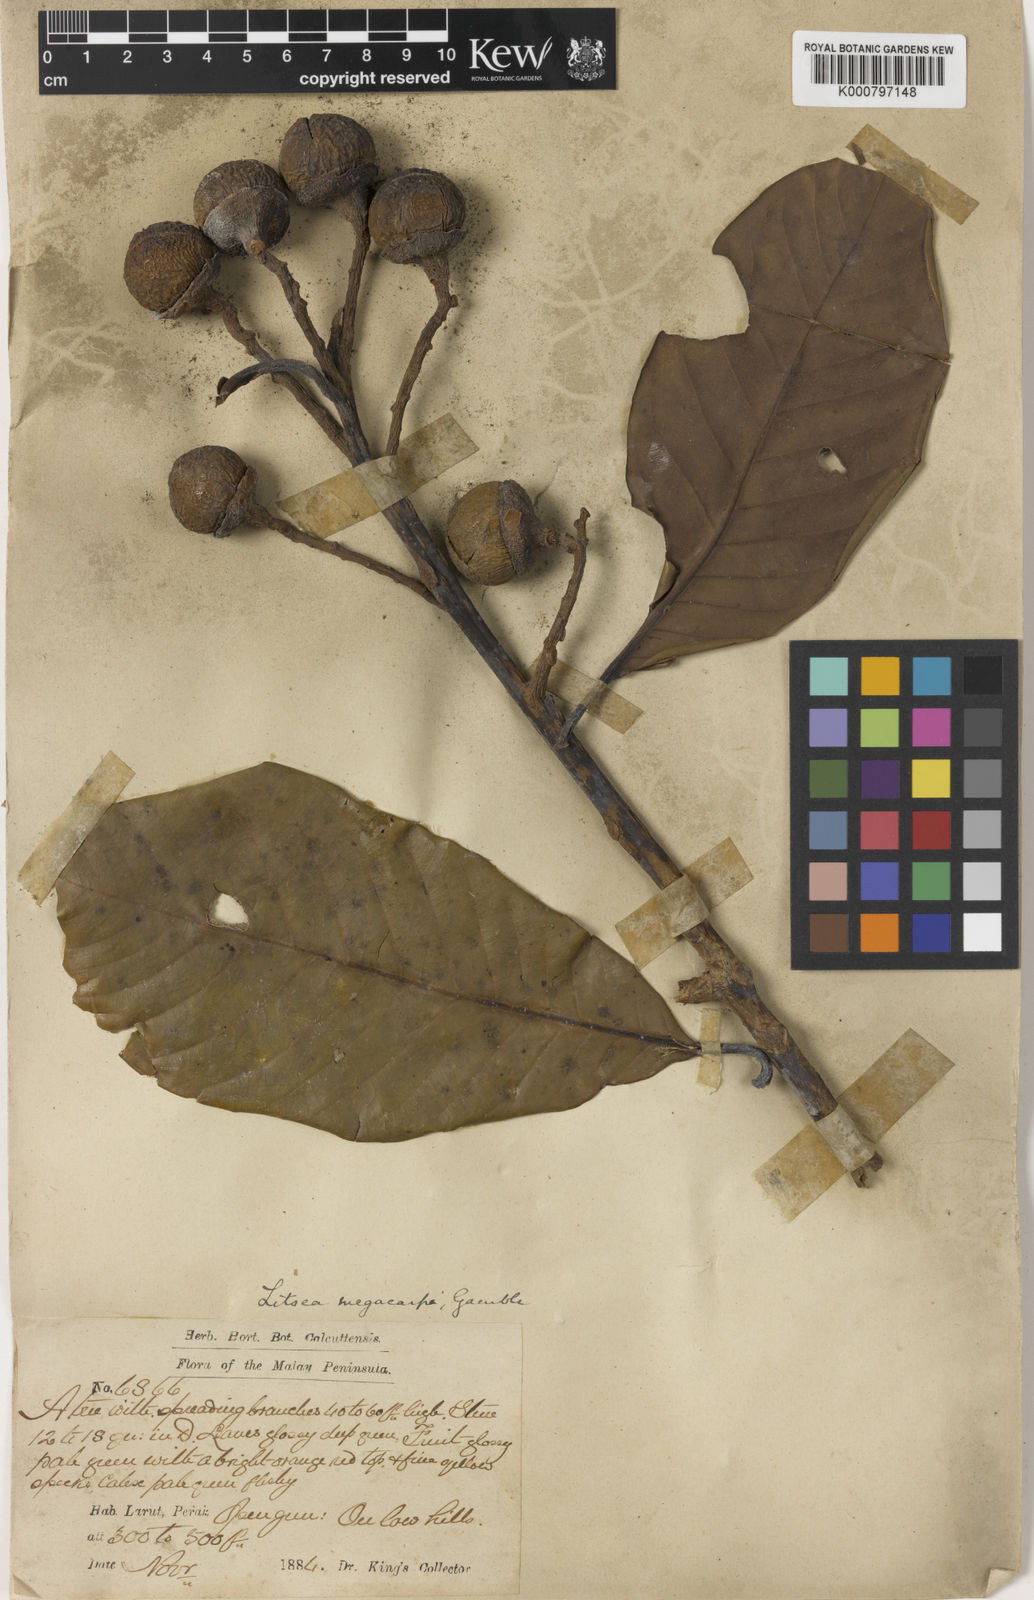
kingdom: Plantae
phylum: Tracheophyta
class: Magnoliopsida
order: Laurales
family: Lauraceae
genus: Litsea
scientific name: Litsea costalis
